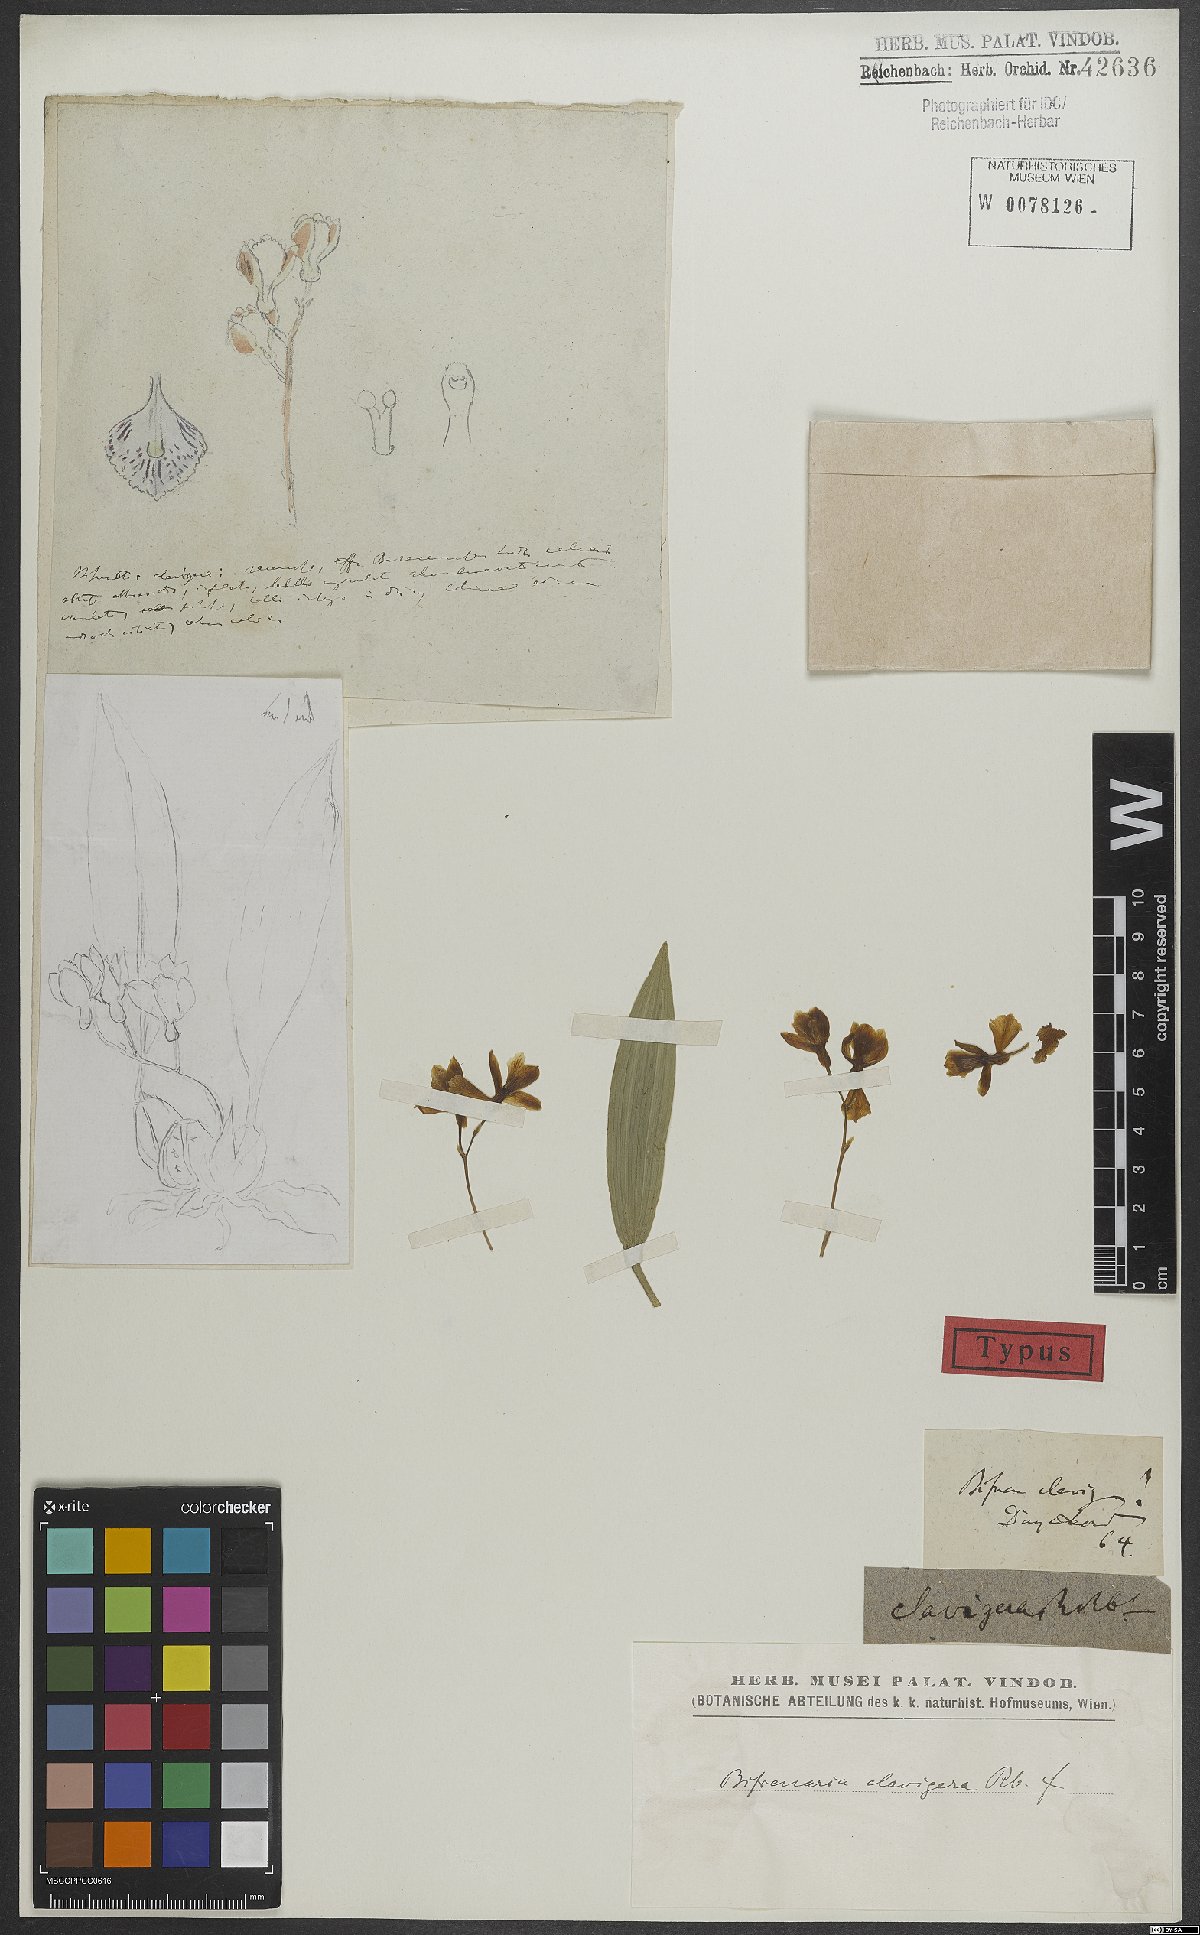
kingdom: Plantae
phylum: Tracheophyta
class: Liliopsida
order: Asparagales
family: Orchidaceae
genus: Bifrenaria
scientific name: Bifrenaria parthonii
